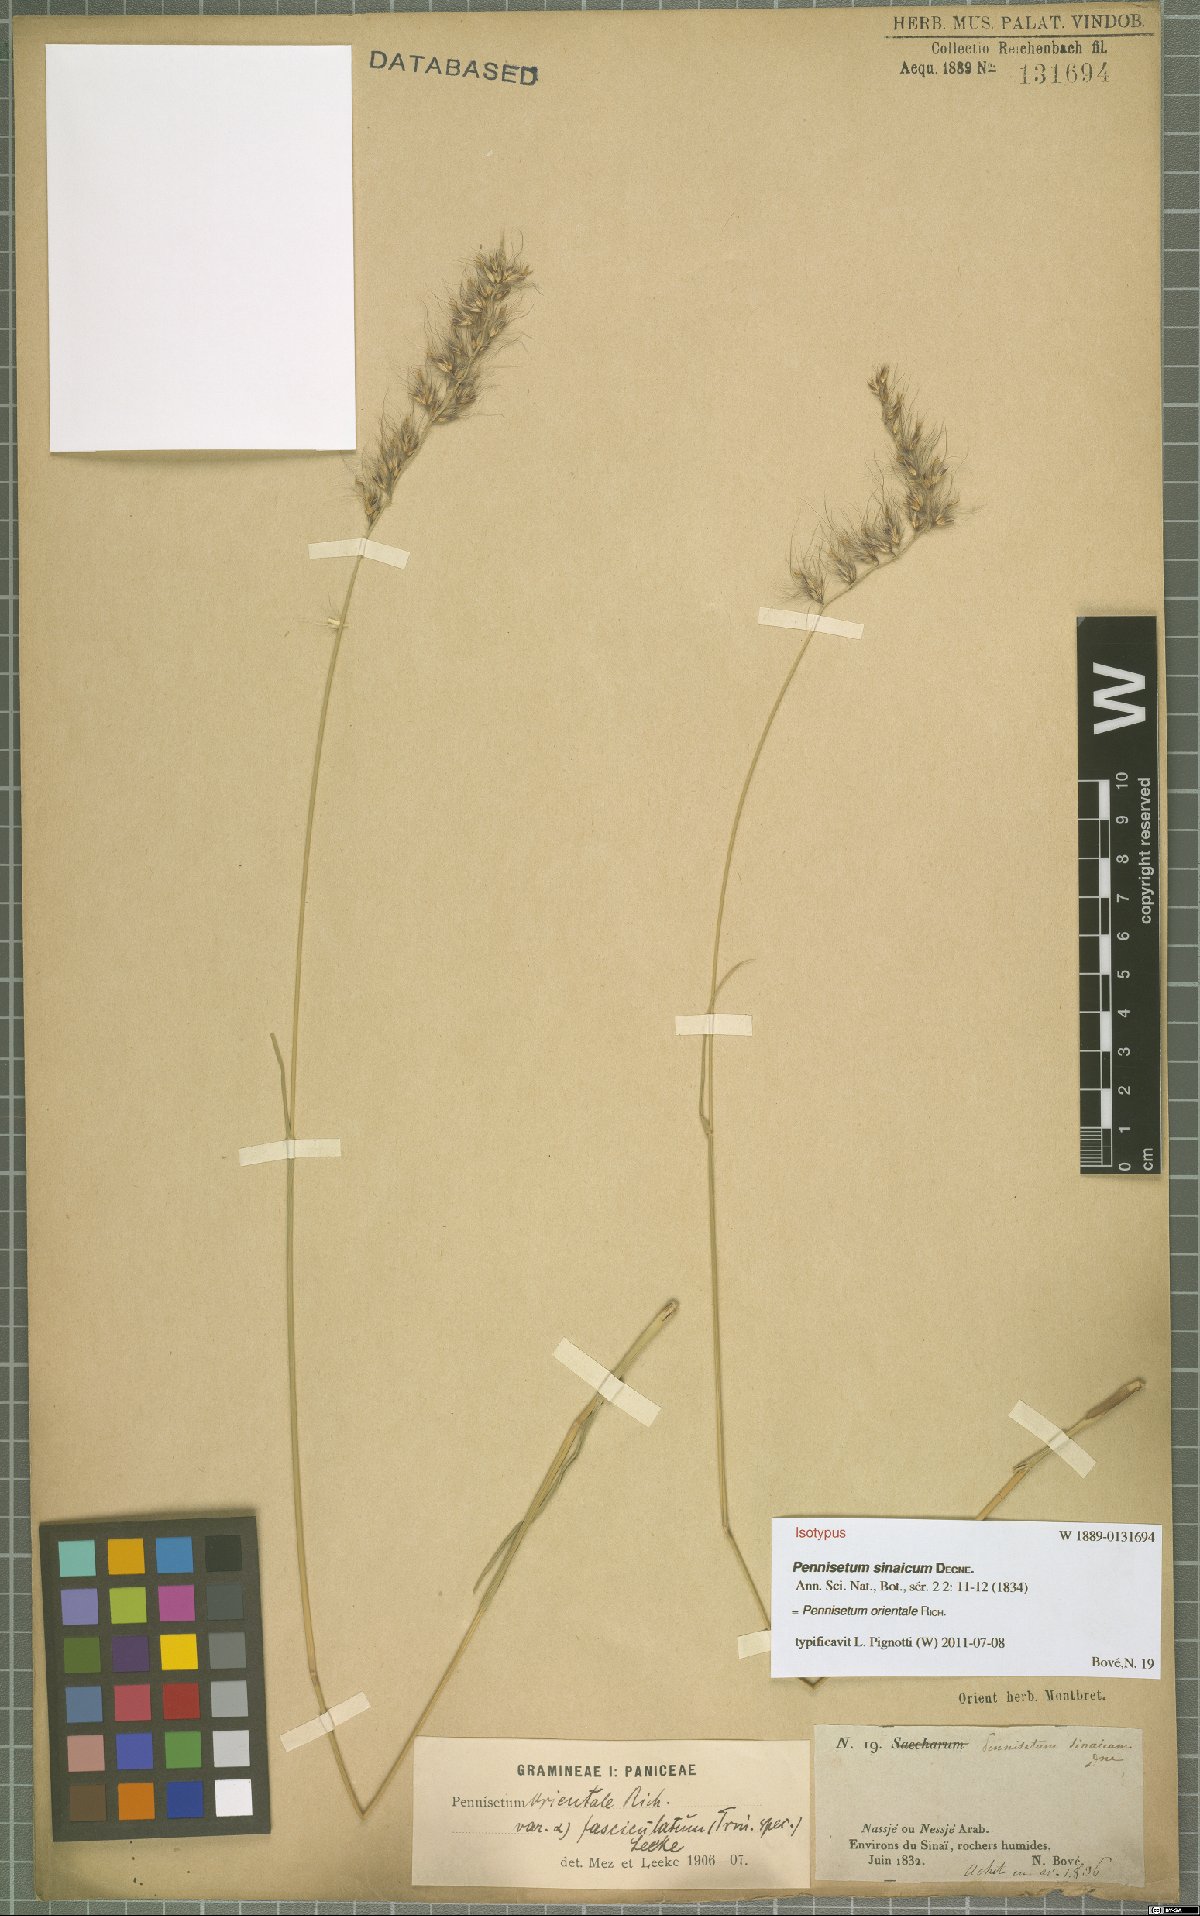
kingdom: Plantae
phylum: Tracheophyta
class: Liliopsida
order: Poales
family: Poaceae
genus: Cenchrus
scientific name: Cenchrus orientalis
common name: Oriental fountain grass
